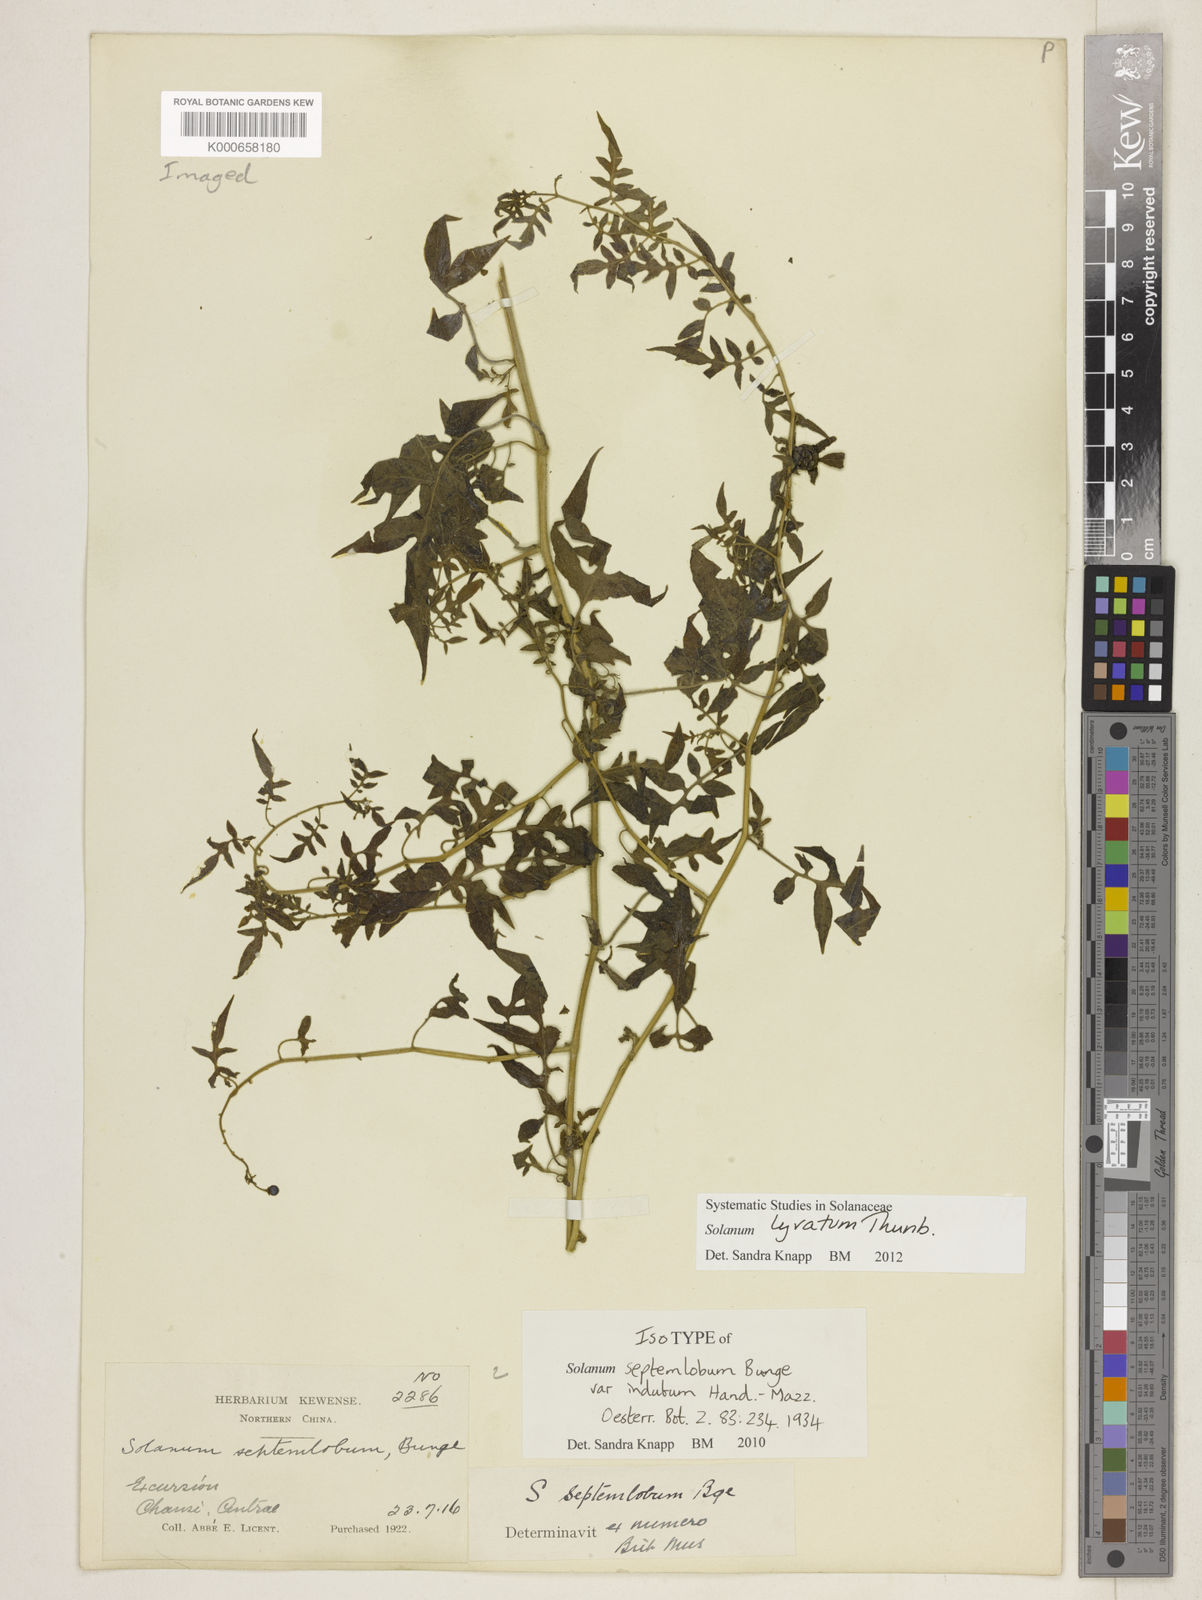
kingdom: Plantae
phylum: Tracheophyta
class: Magnoliopsida
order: Solanales
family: Solanaceae
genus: Solanum
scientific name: Solanum lyratum
